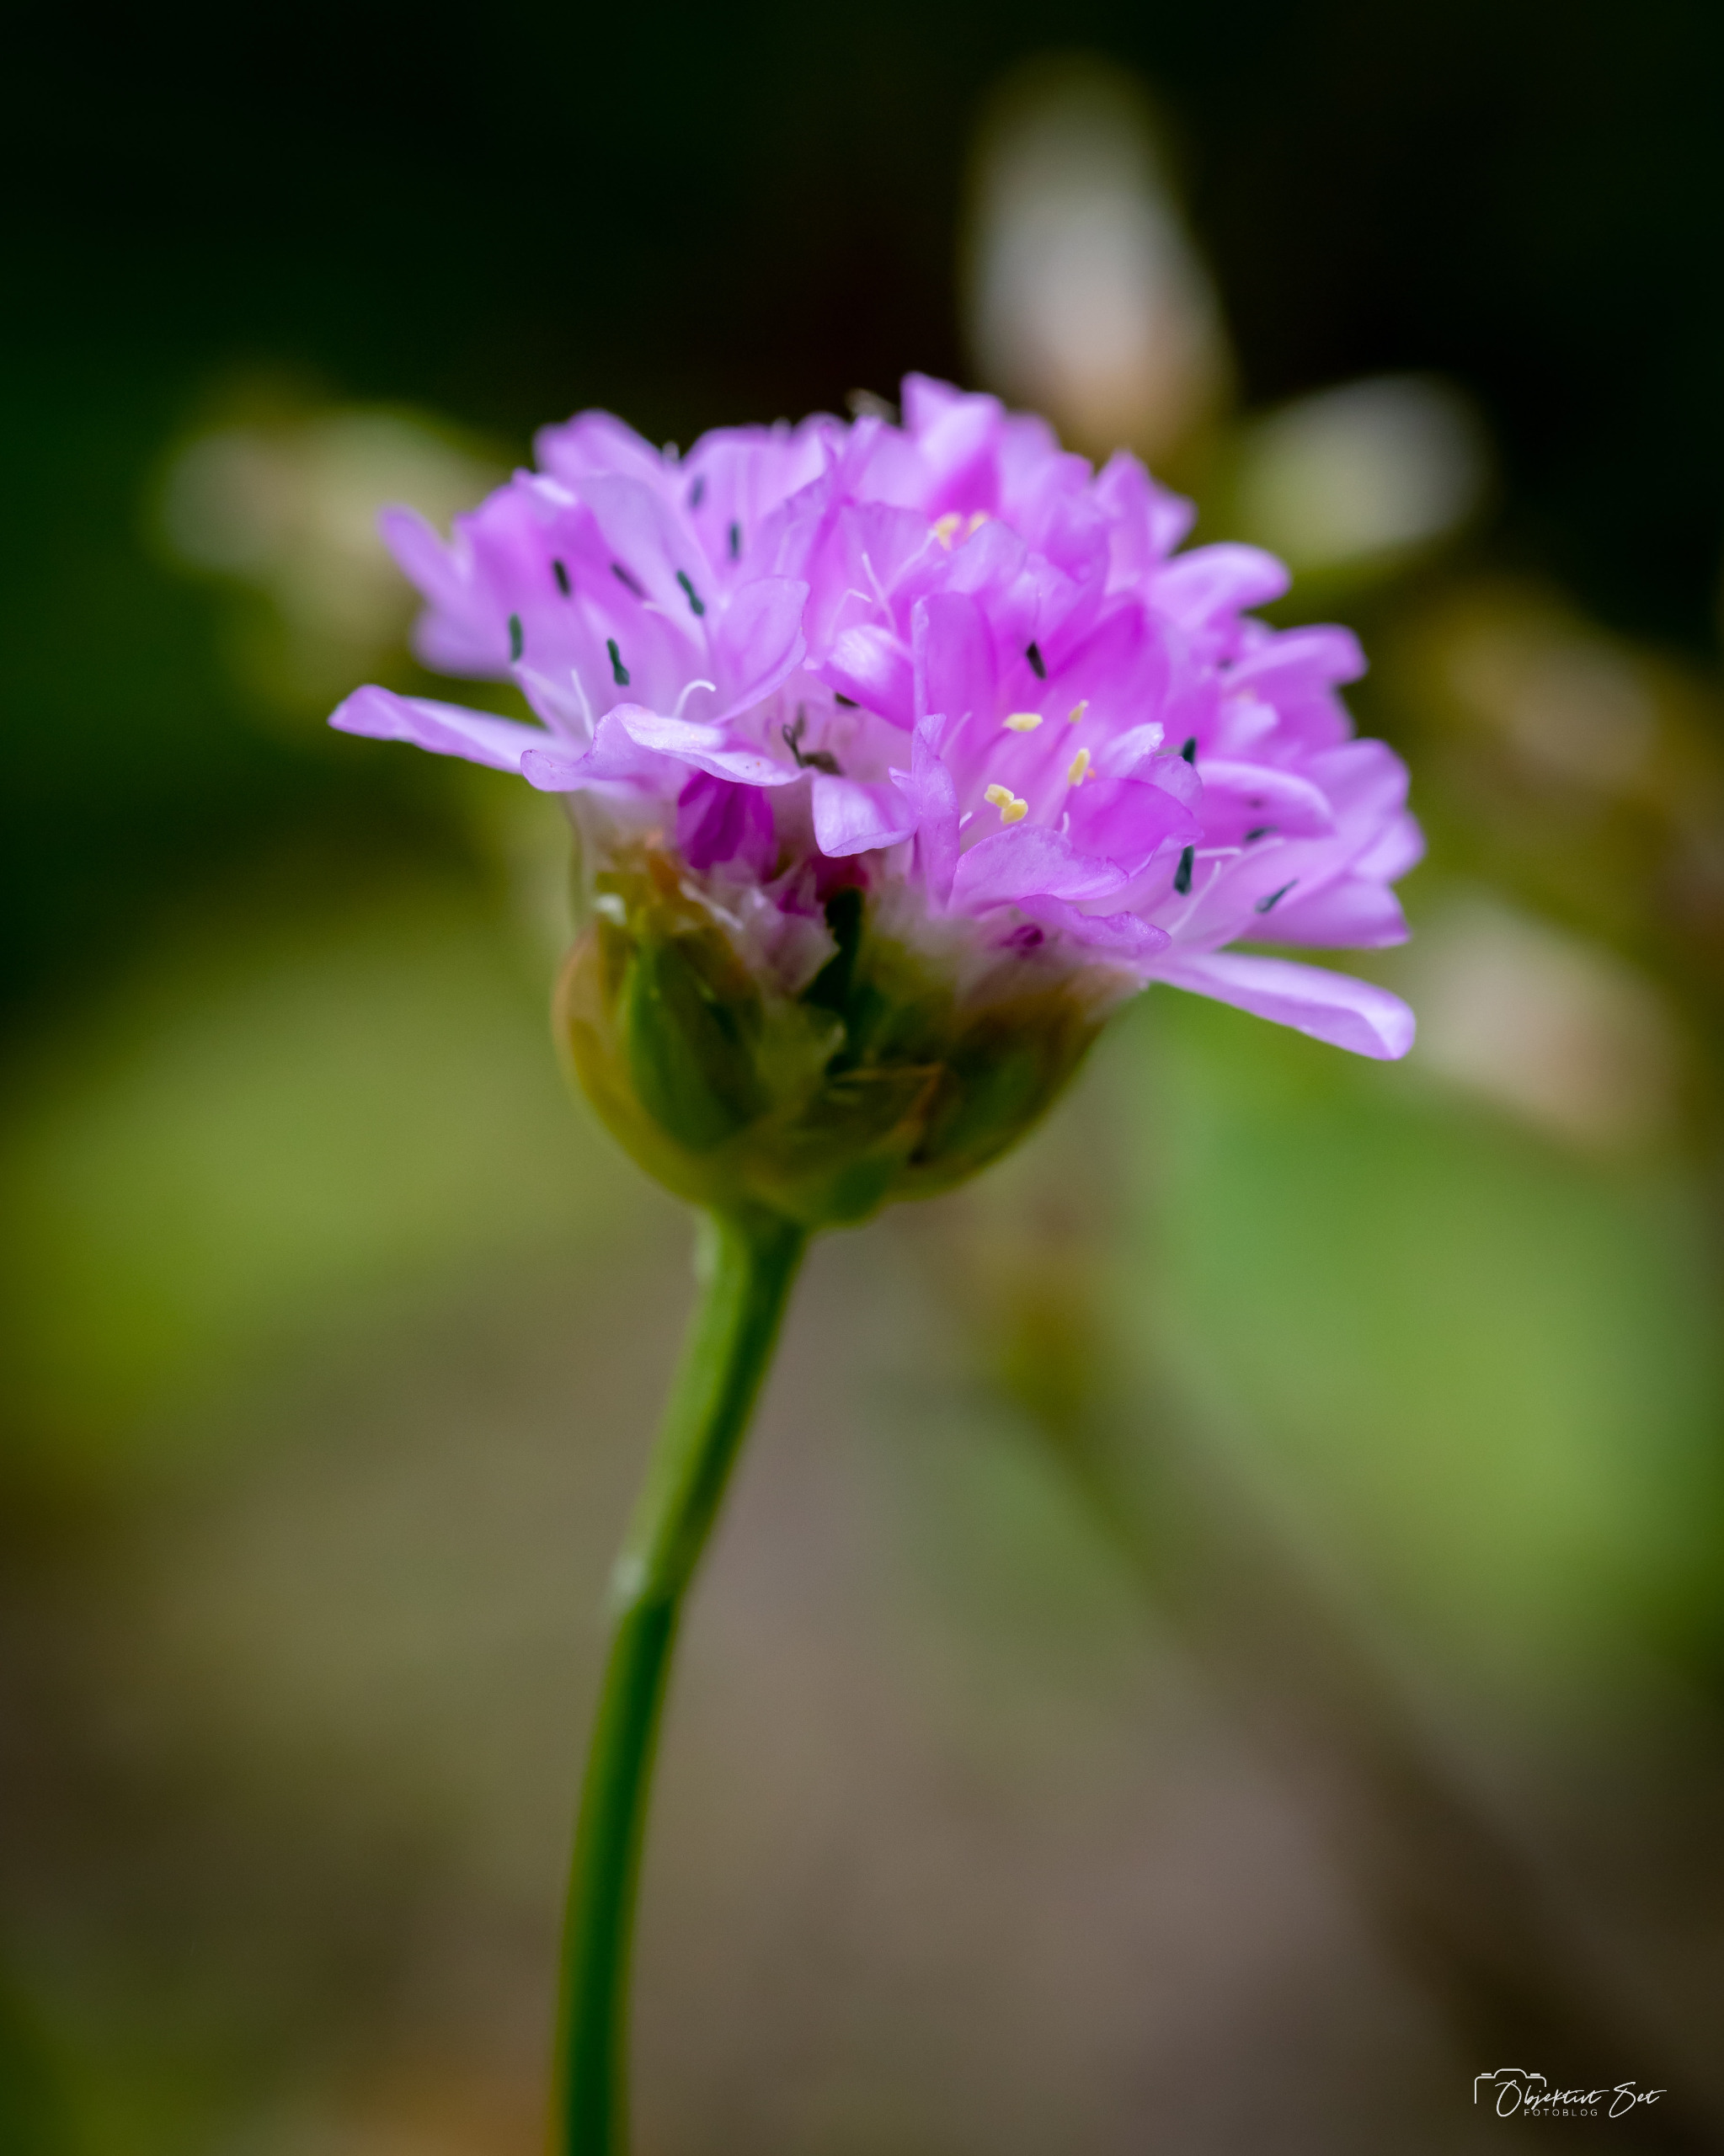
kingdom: Plantae
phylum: Tracheophyta
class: Magnoliopsida
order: Caryophyllales
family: Plumbaginaceae
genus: Armeria
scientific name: Armeria maritima
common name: Engelskgræs
